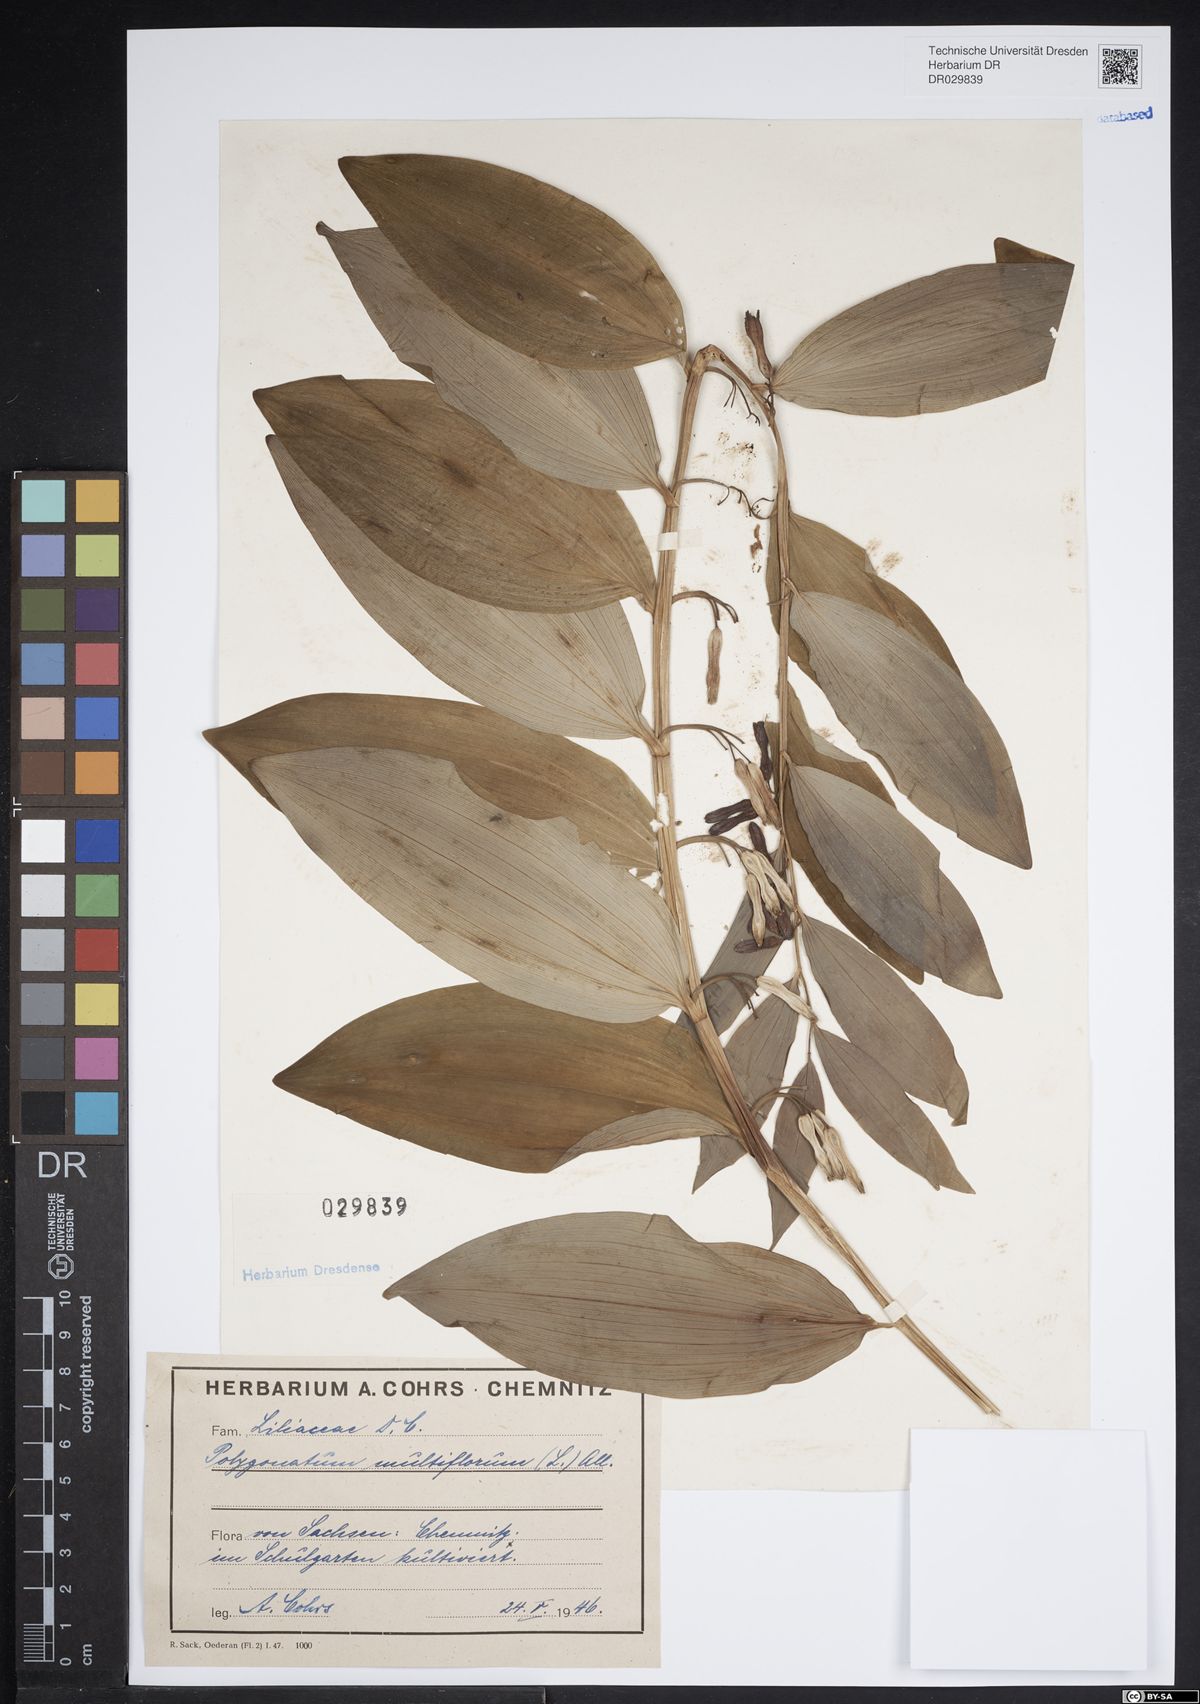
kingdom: Plantae
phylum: Tracheophyta
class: Liliopsida
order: Asparagales
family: Asparagaceae
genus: Polygonatum
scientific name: Polygonatum odoratum
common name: Angular solomon's-seal
